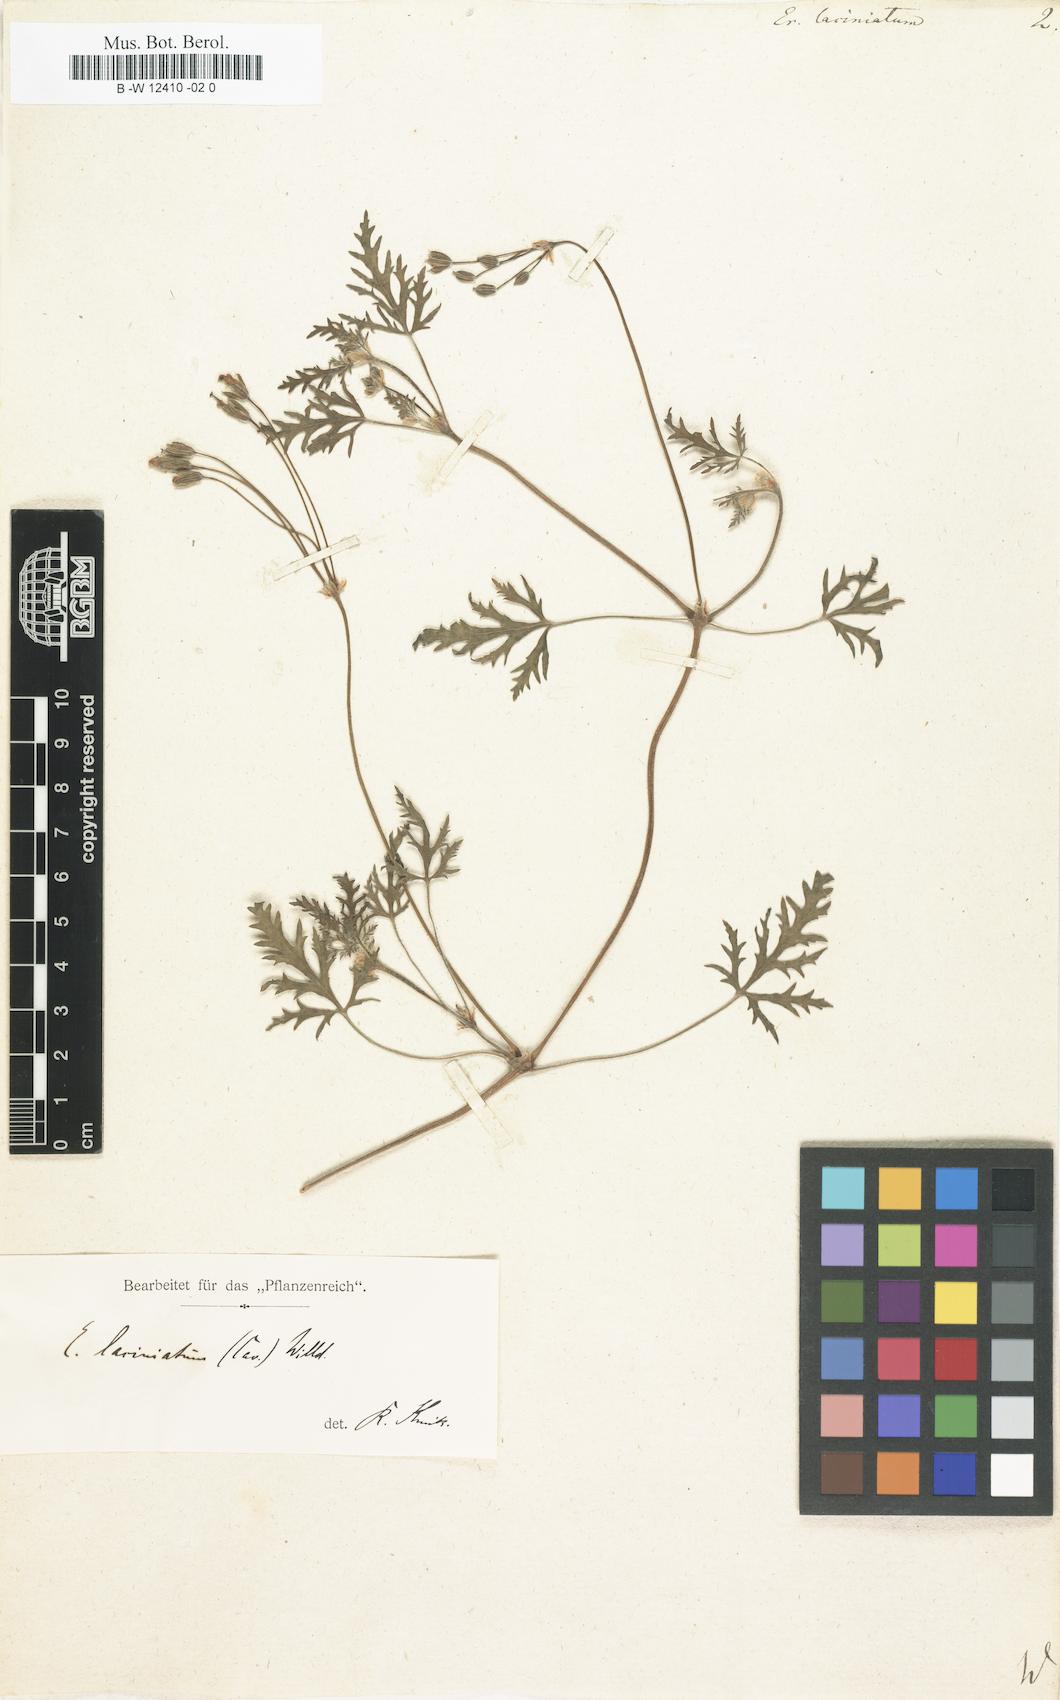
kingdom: Plantae
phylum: Tracheophyta
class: Magnoliopsida
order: Geraniales
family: Geraniaceae
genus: Erodium
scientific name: Erodium laciniatum
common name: Cutleaf stork's bill
